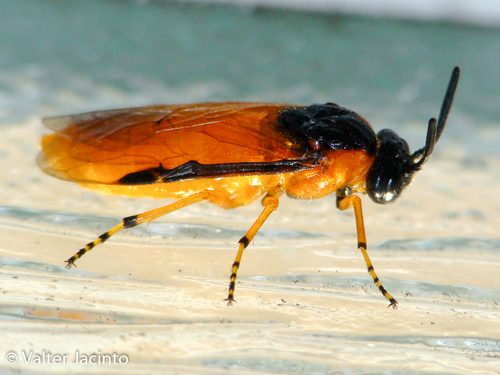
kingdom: Animalia
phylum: Arthropoda
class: Insecta
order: Hymenoptera
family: Tenthredinidae
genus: Athalia
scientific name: Athalia circularis
